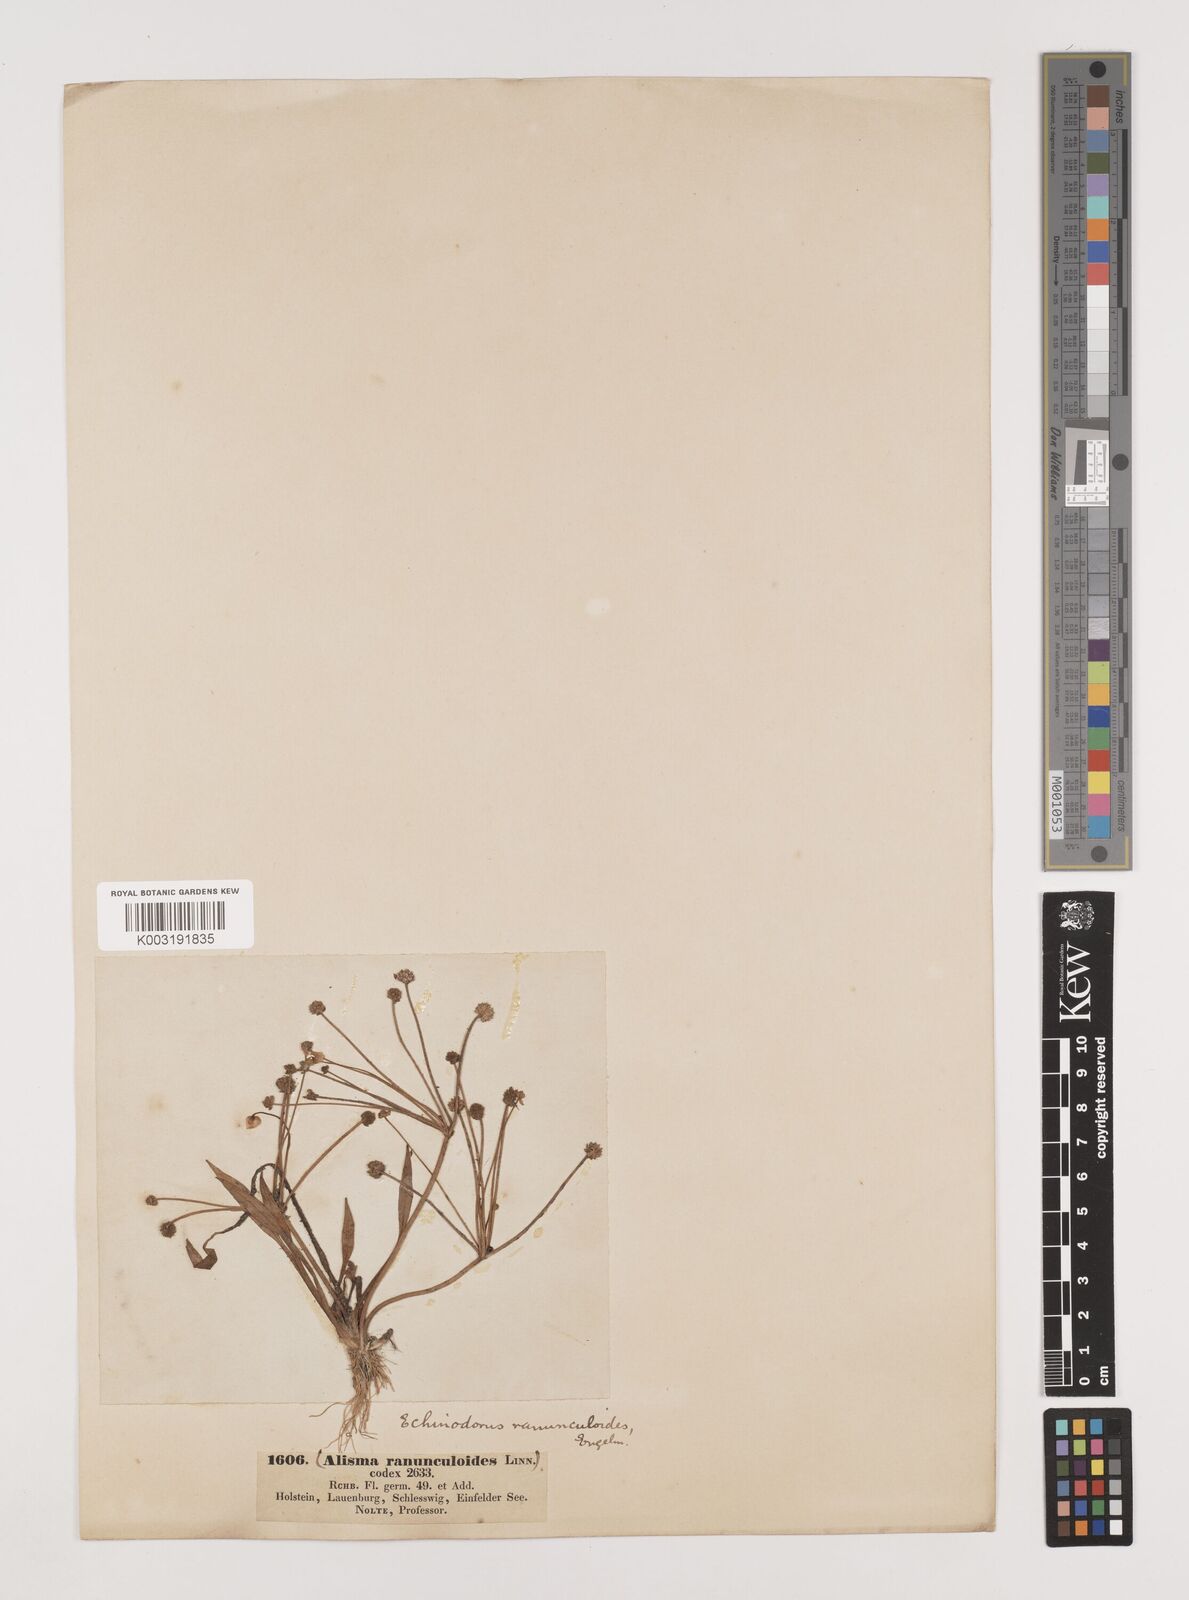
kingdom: Plantae
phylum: Tracheophyta
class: Liliopsida
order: Alismatales
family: Alismataceae
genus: Baldellia
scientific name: Baldellia ranunculoides
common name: Lesser water-plantain
